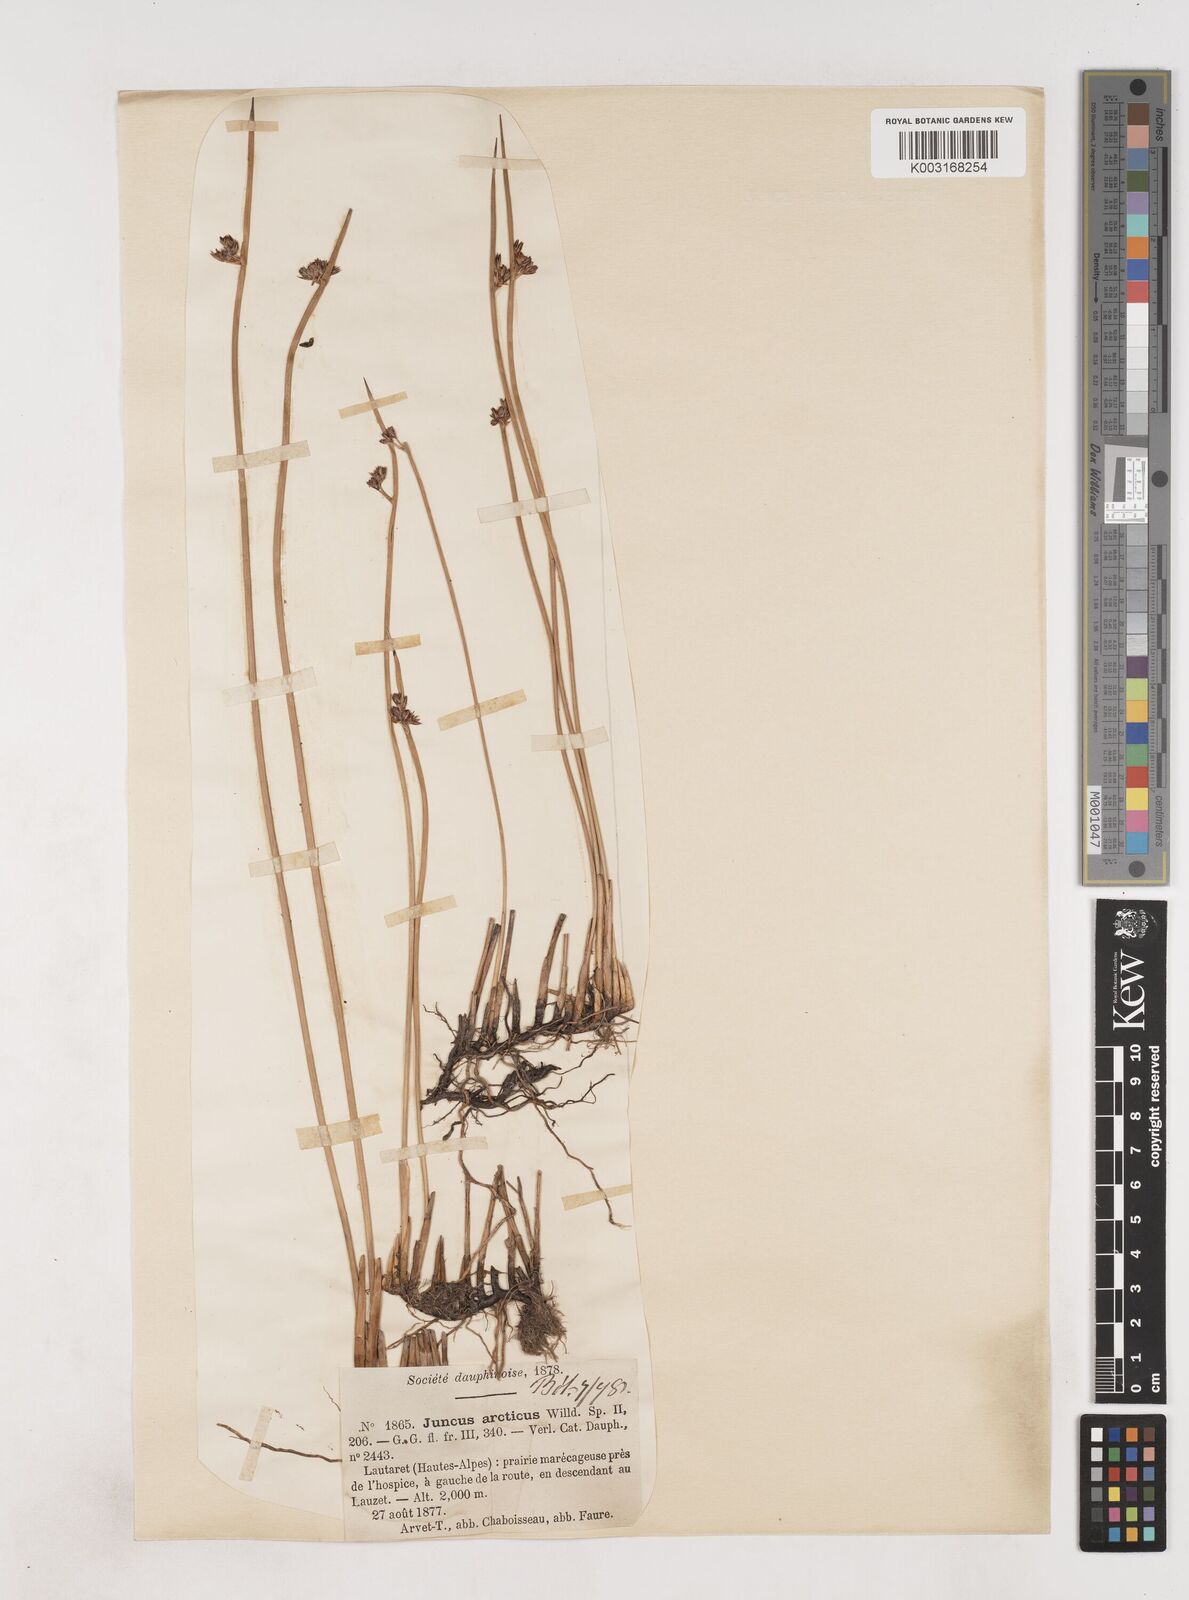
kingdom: Plantae
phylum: Tracheophyta
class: Liliopsida
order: Poales
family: Juncaceae
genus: Juncus
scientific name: Juncus arcticus
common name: Arctic rush
